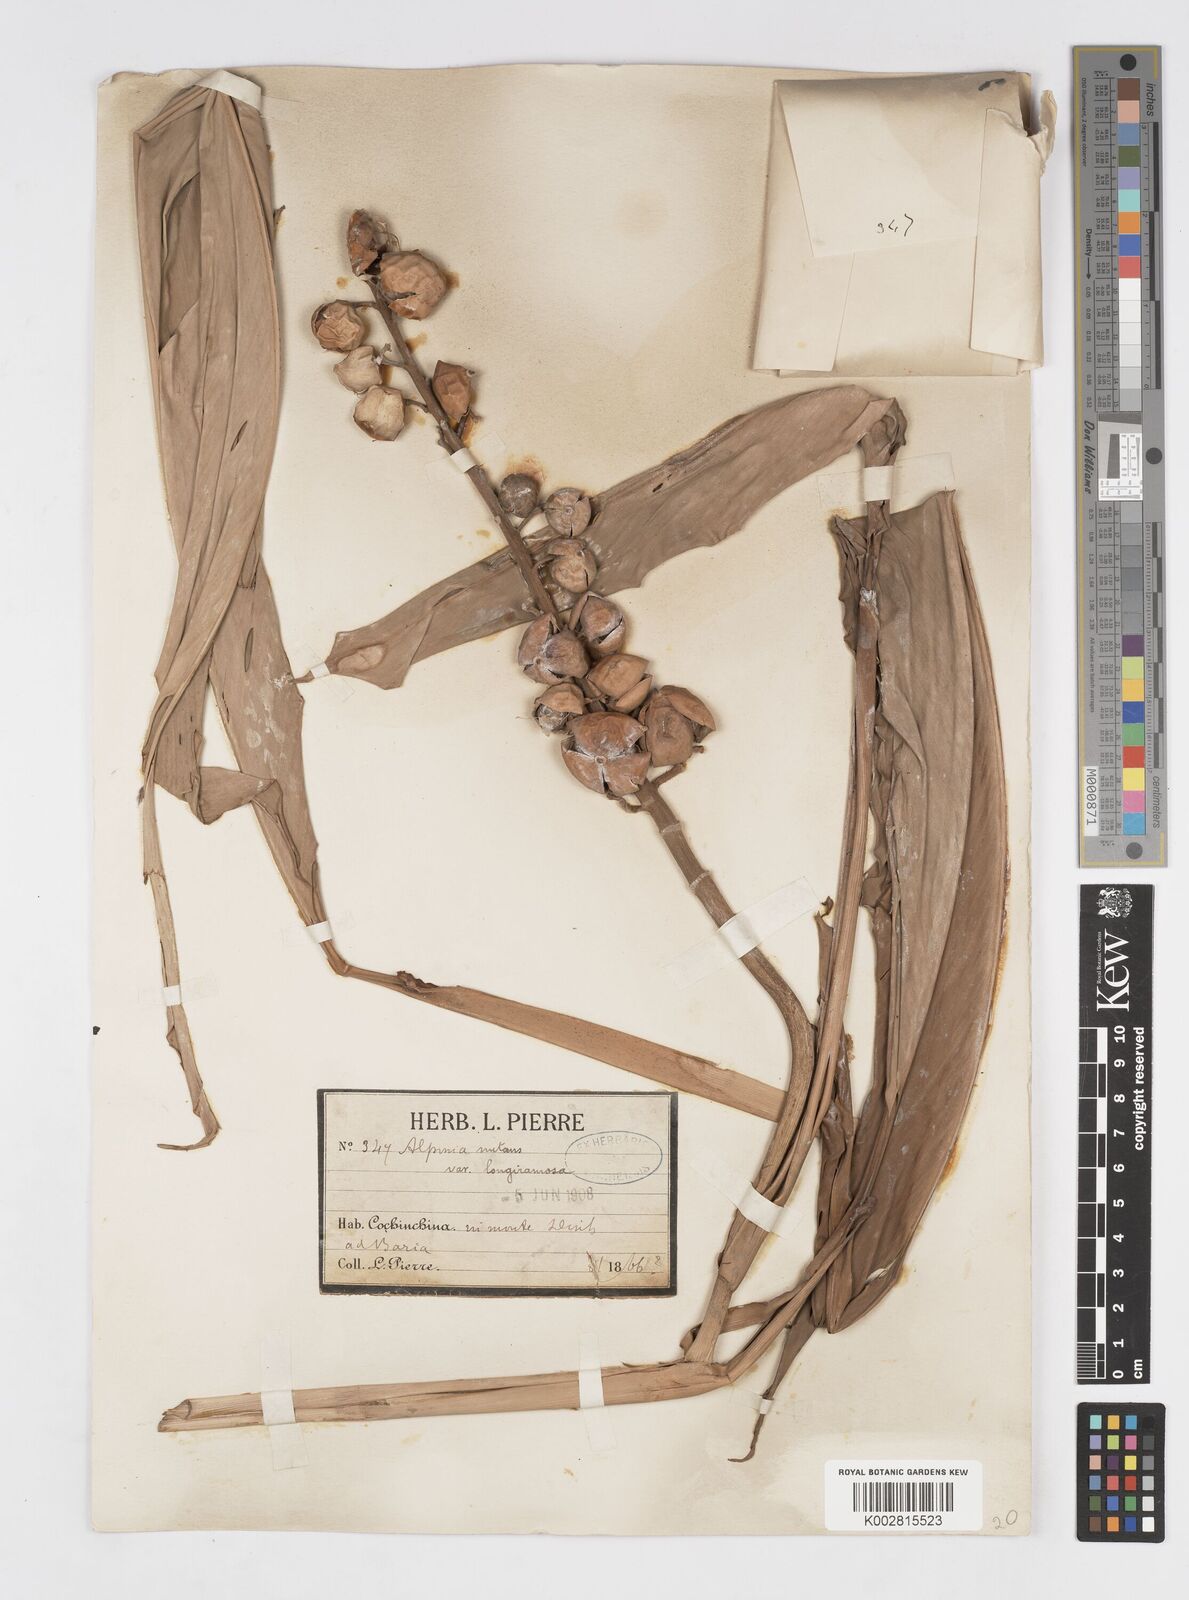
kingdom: Plantae
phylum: Tracheophyta
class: Liliopsida
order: Zingiberales
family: Zingiberaceae
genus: Alpinia
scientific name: Alpinia zerumbet
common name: Shellplant
